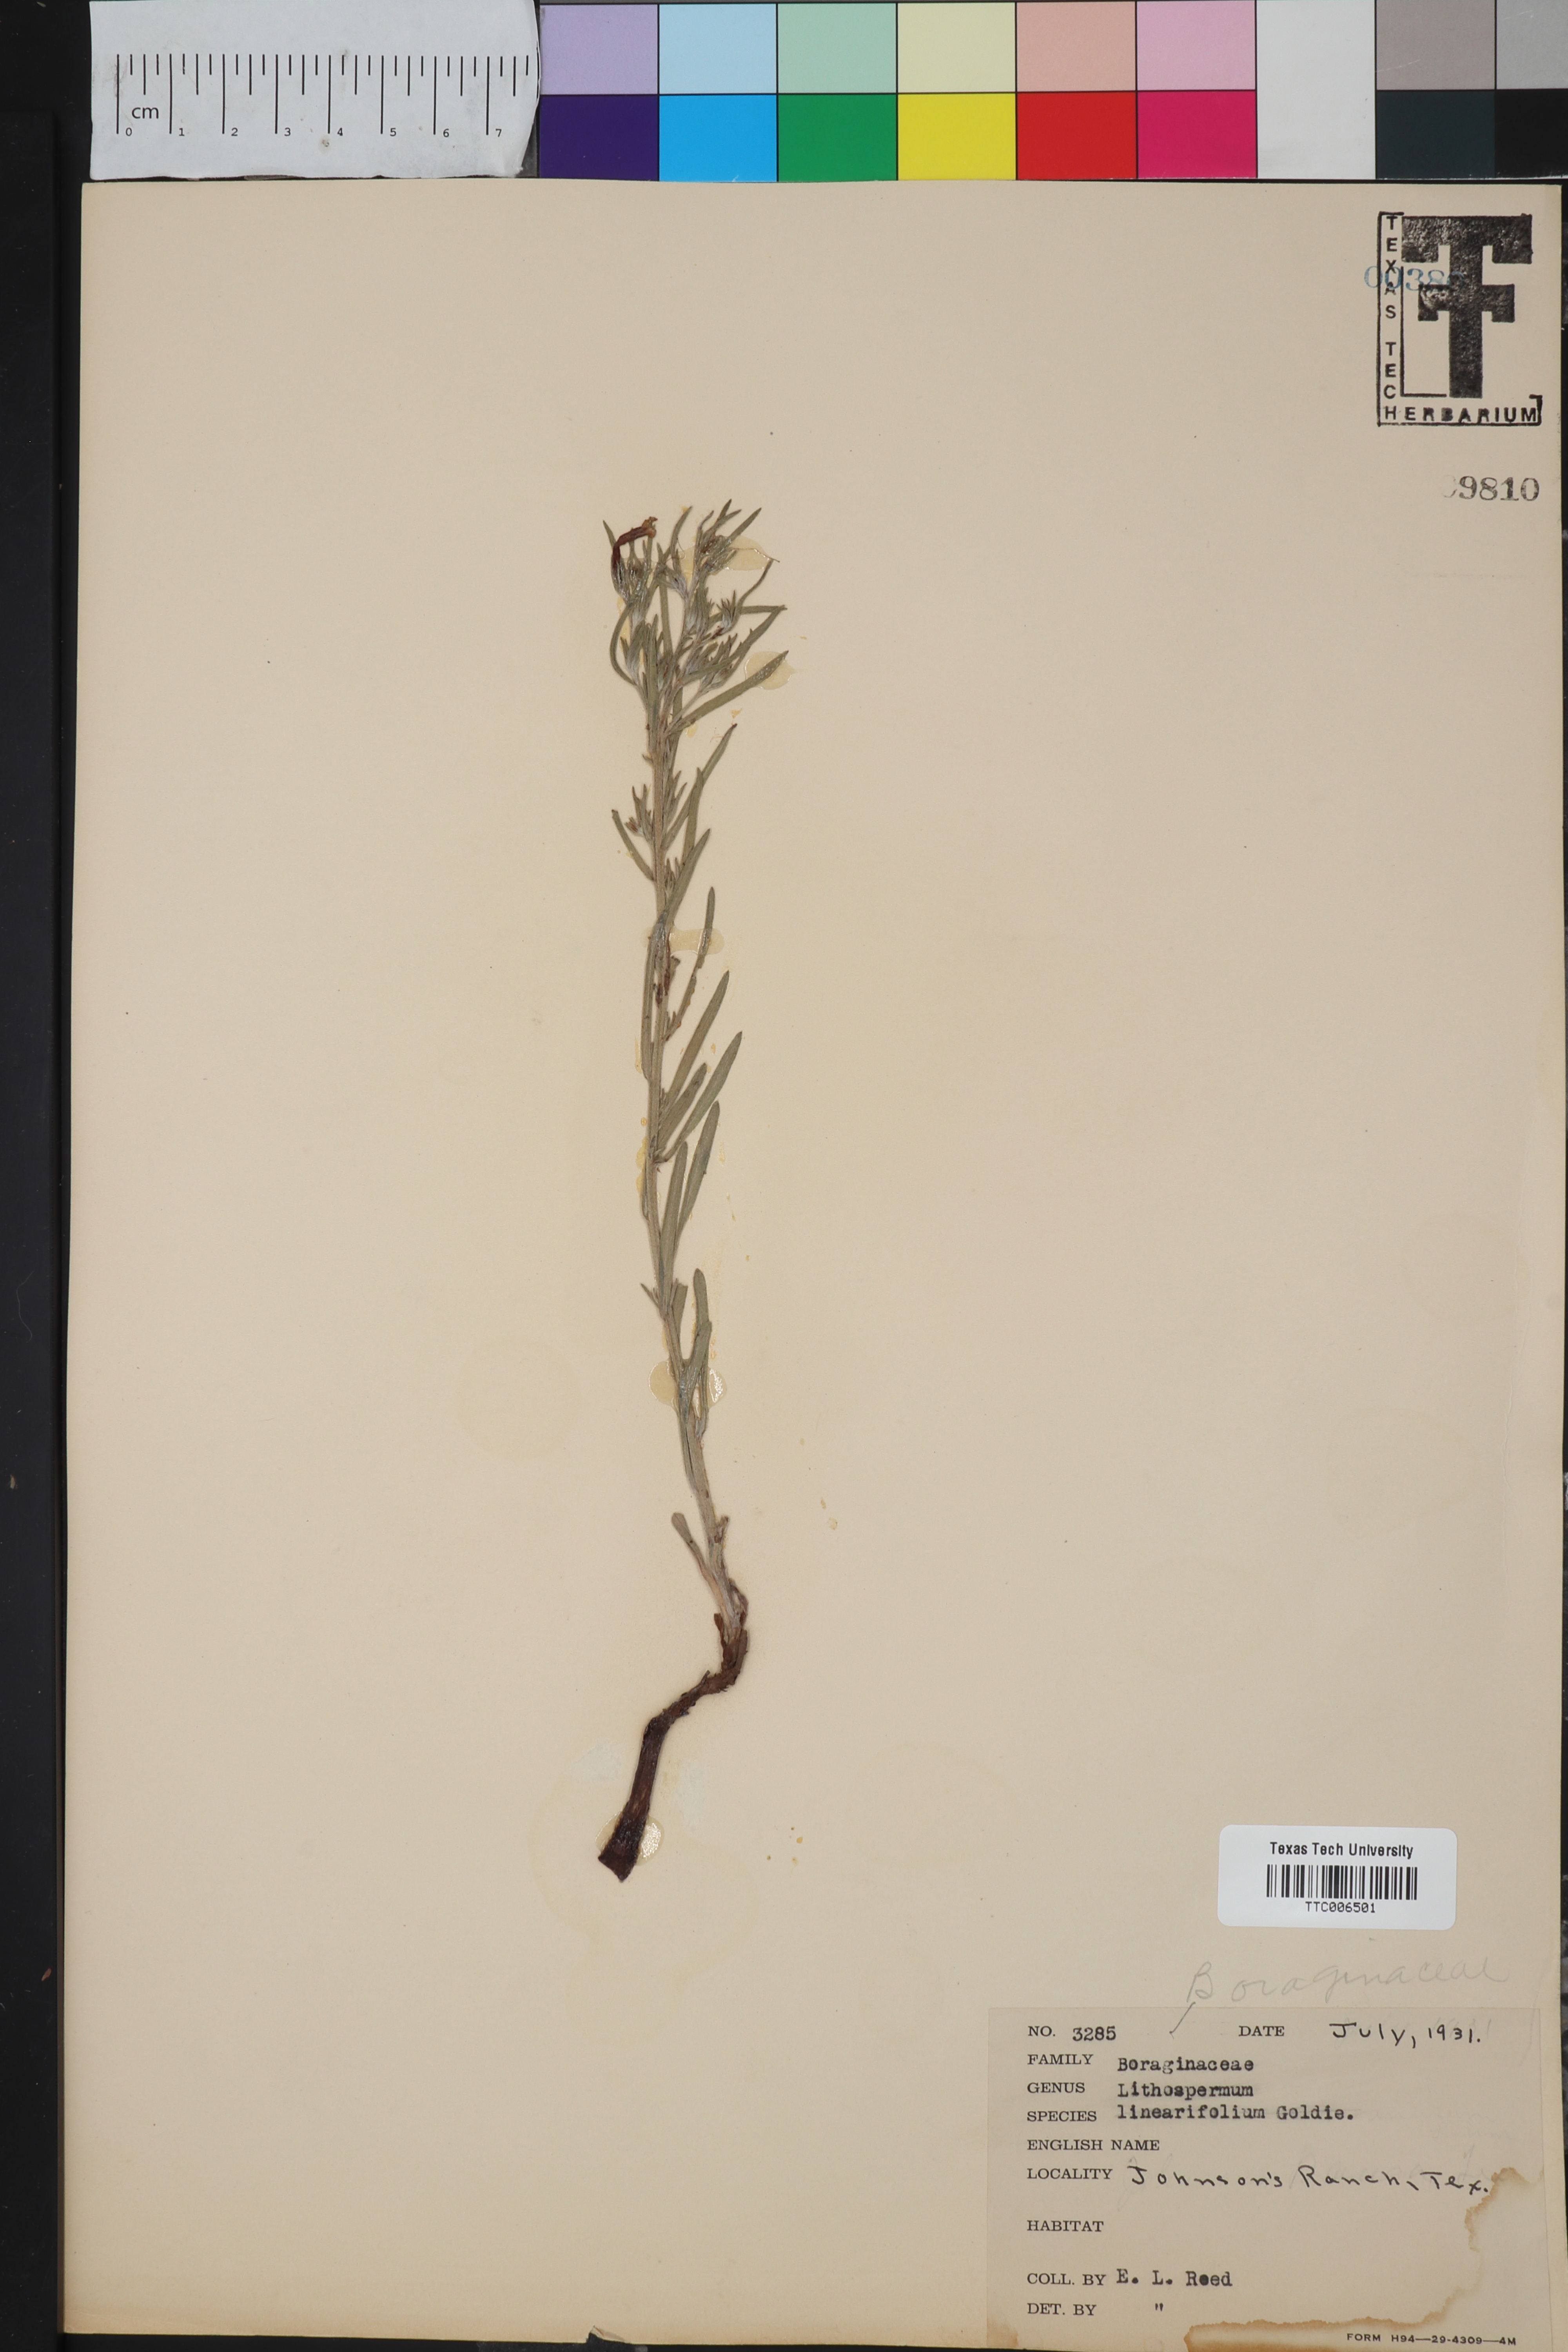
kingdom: Plantae
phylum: Tracheophyta
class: Magnoliopsida
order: Boraginales
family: Boraginaceae
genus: Lithospermum
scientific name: Lithospermum incisum
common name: Fringed gromwell
